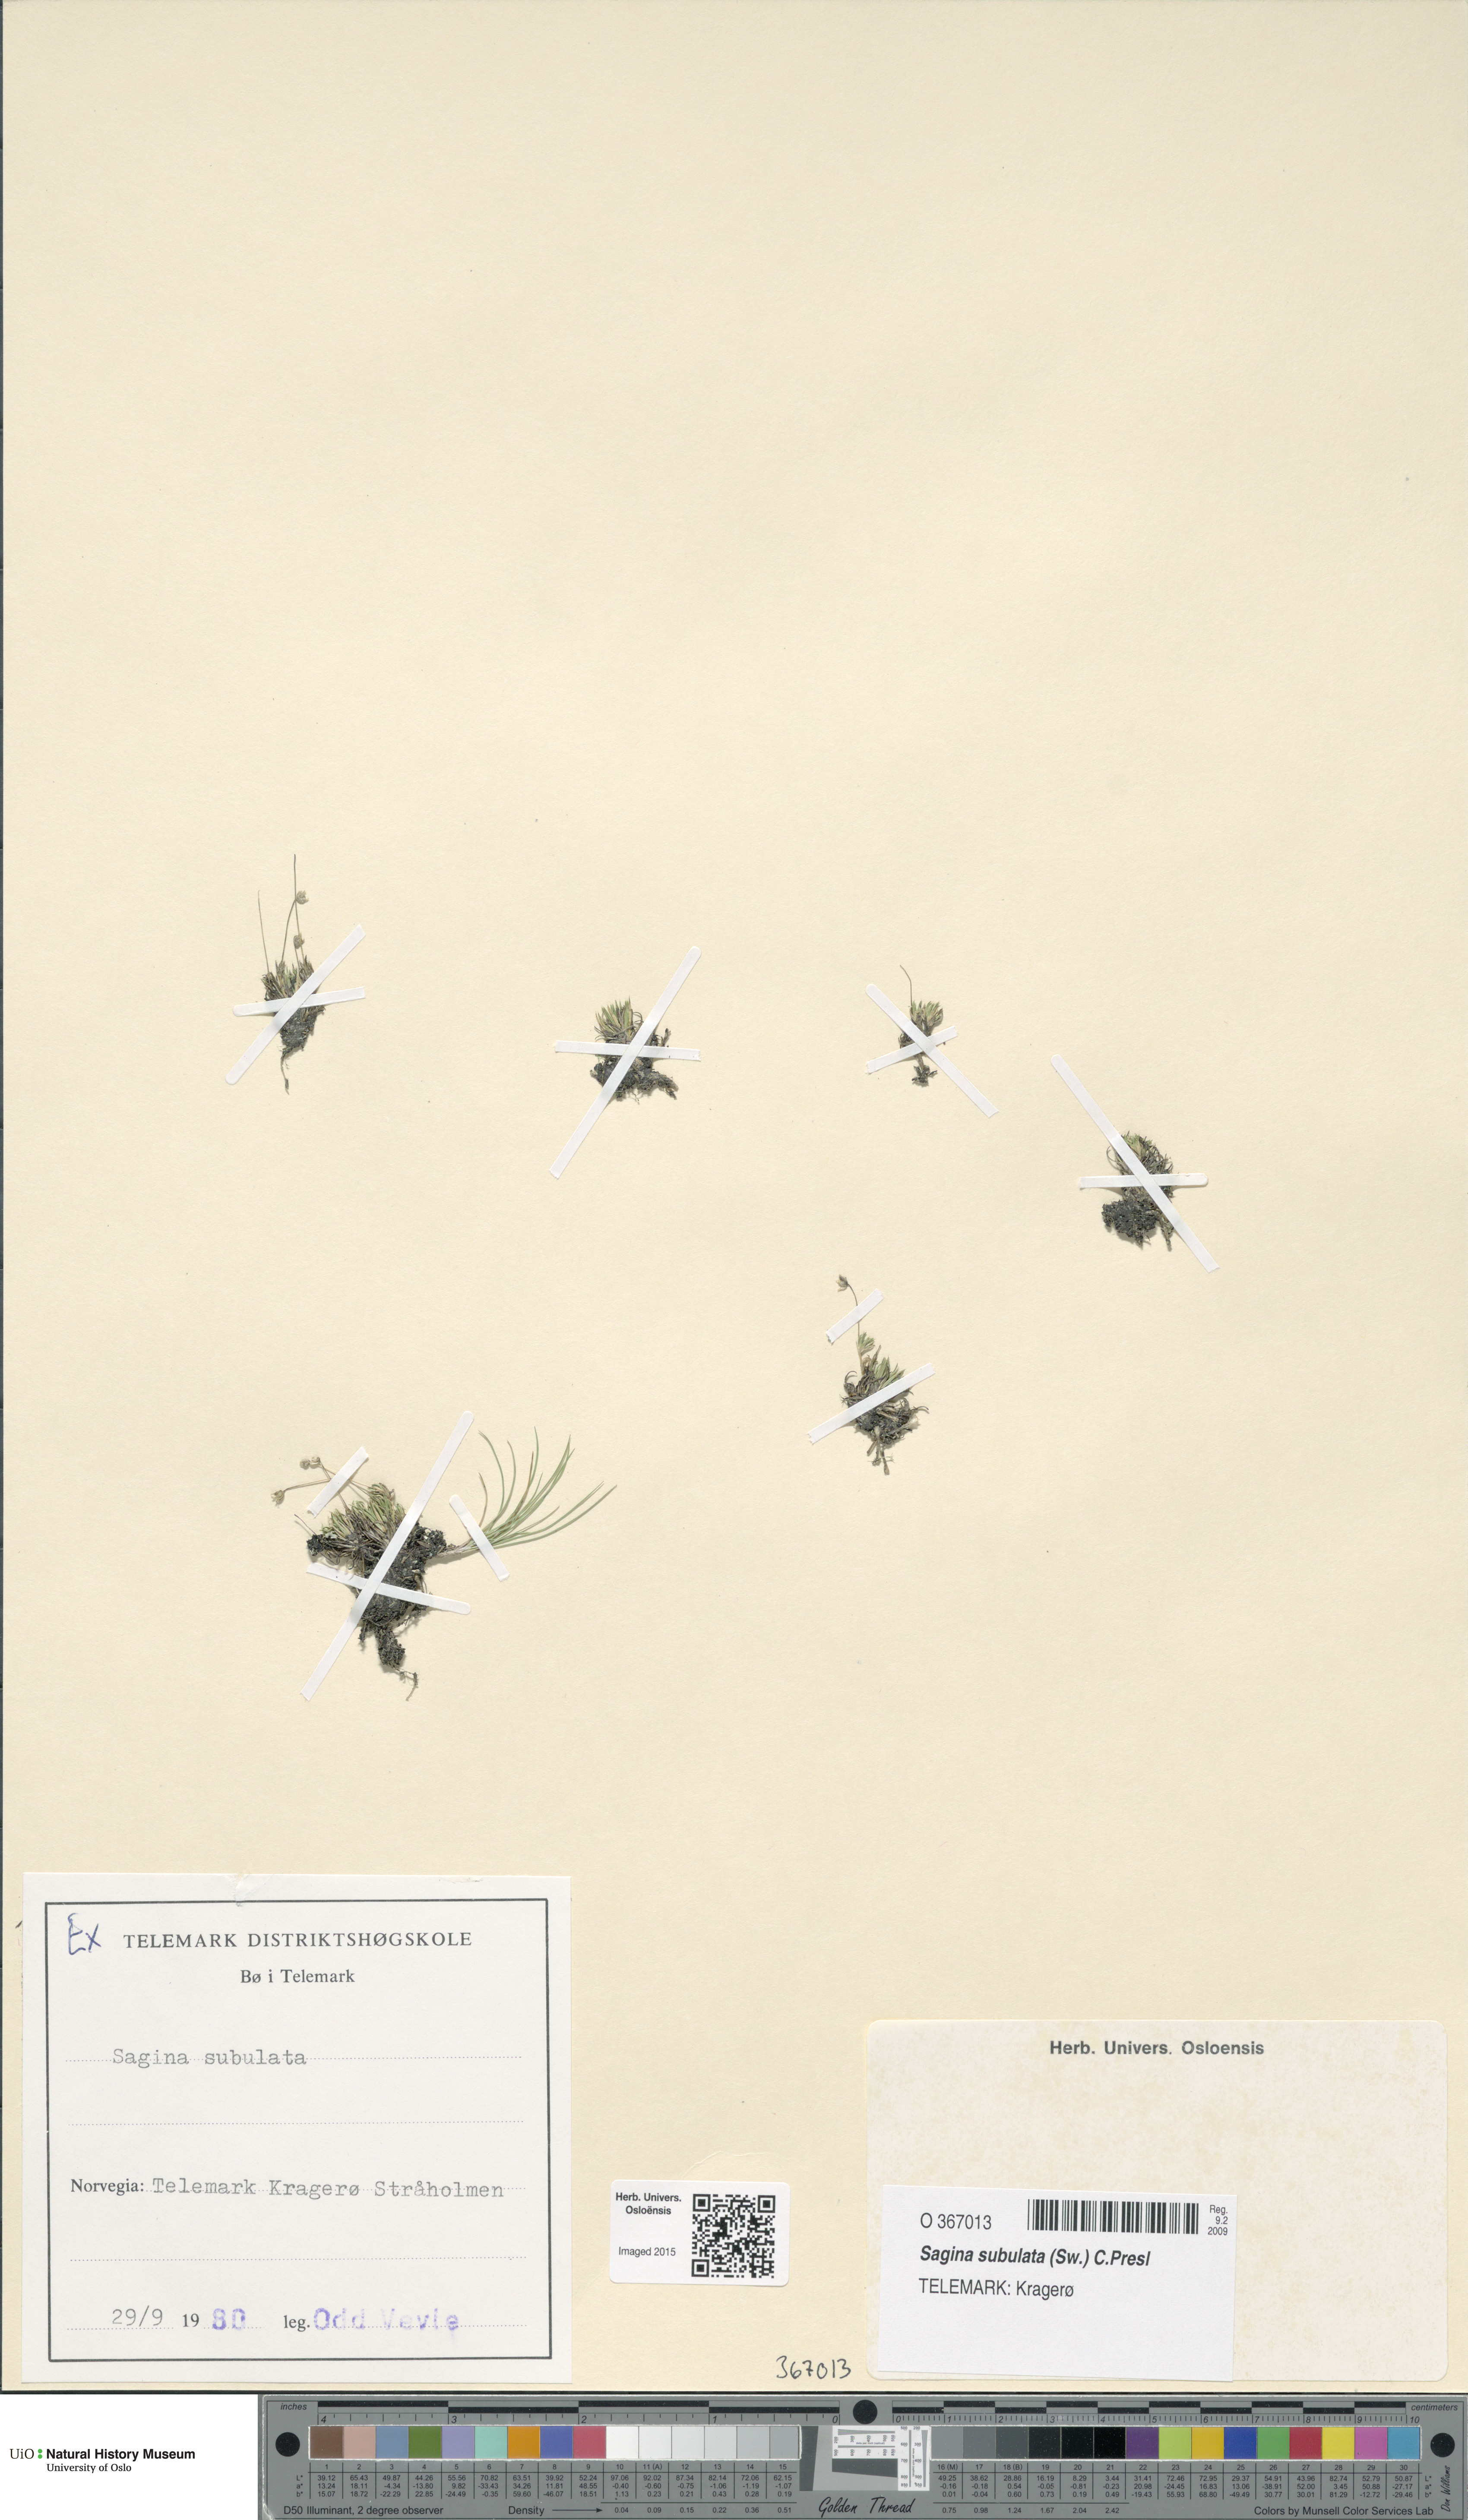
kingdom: Plantae
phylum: Tracheophyta
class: Magnoliopsida
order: Caryophyllales
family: Caryophyllaceae
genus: Sagina
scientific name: Sagina alexandrae
